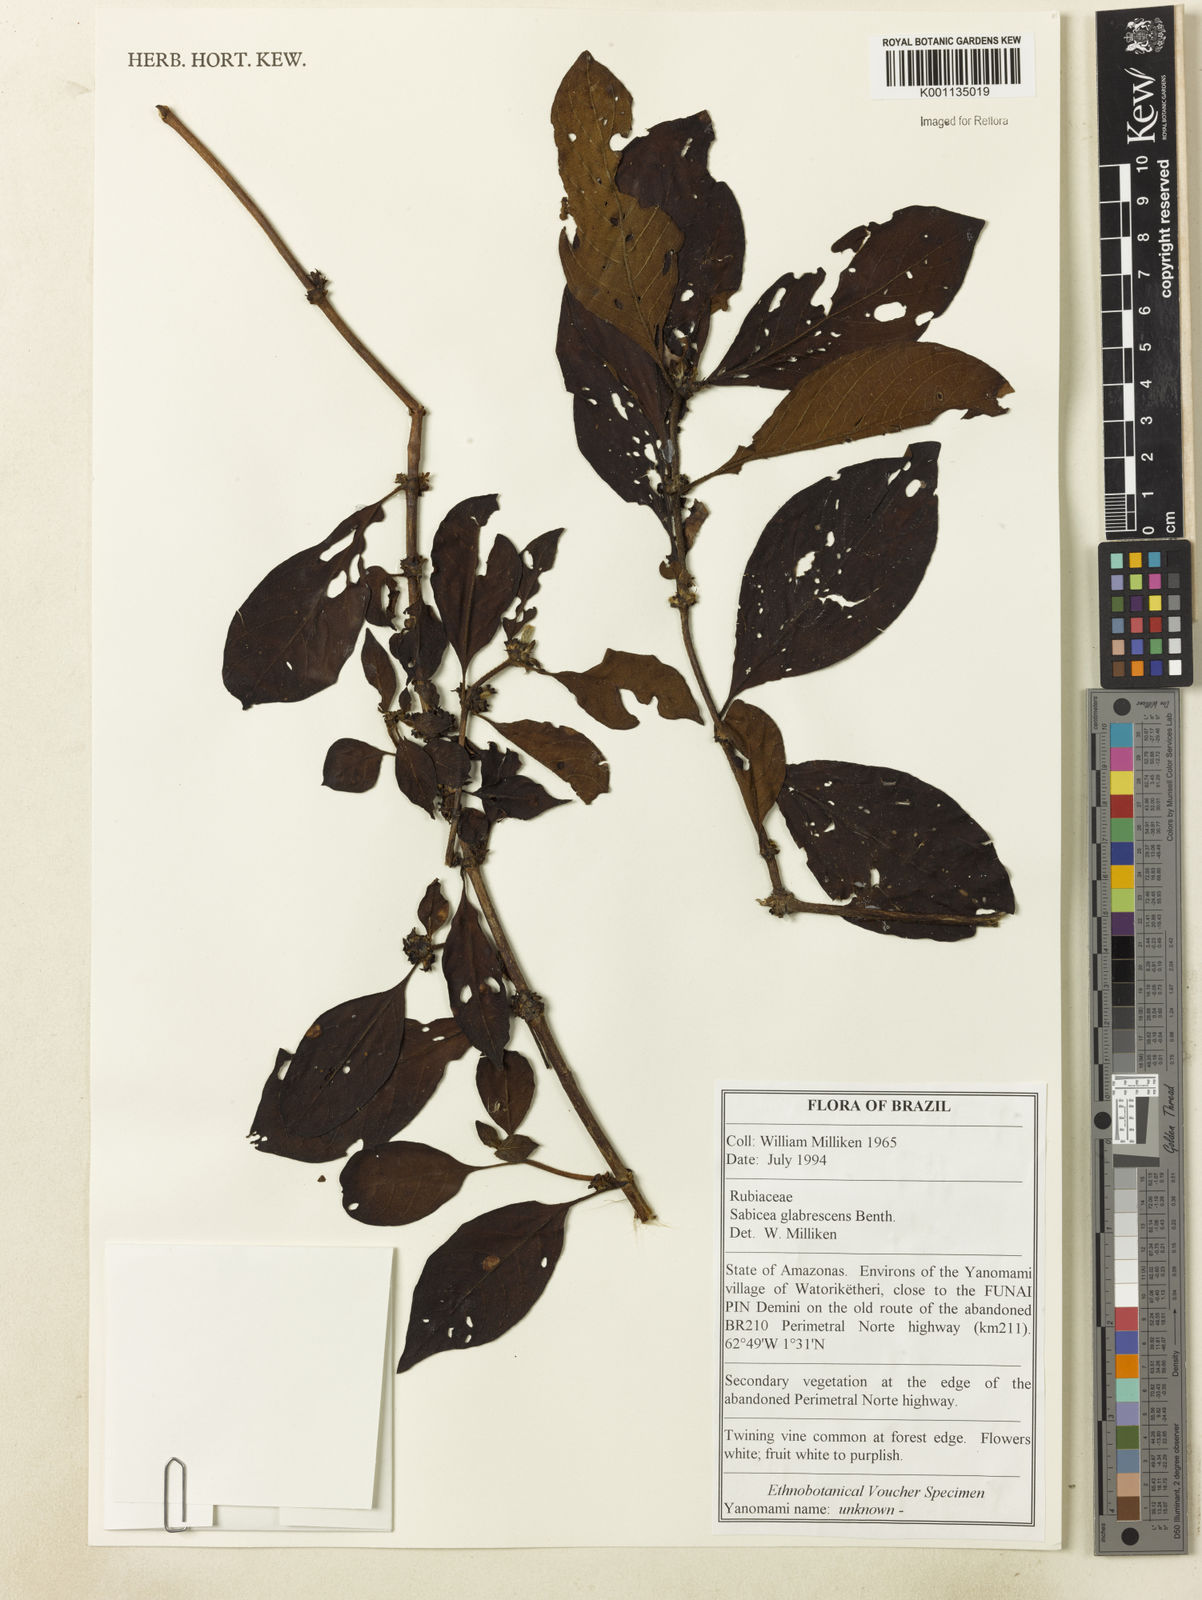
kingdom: Plantae
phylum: Tracheophyta
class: Magnoliopsida
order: Gentianales
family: Rubiaceae
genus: Sabicea
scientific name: Sabicea glabrescens
